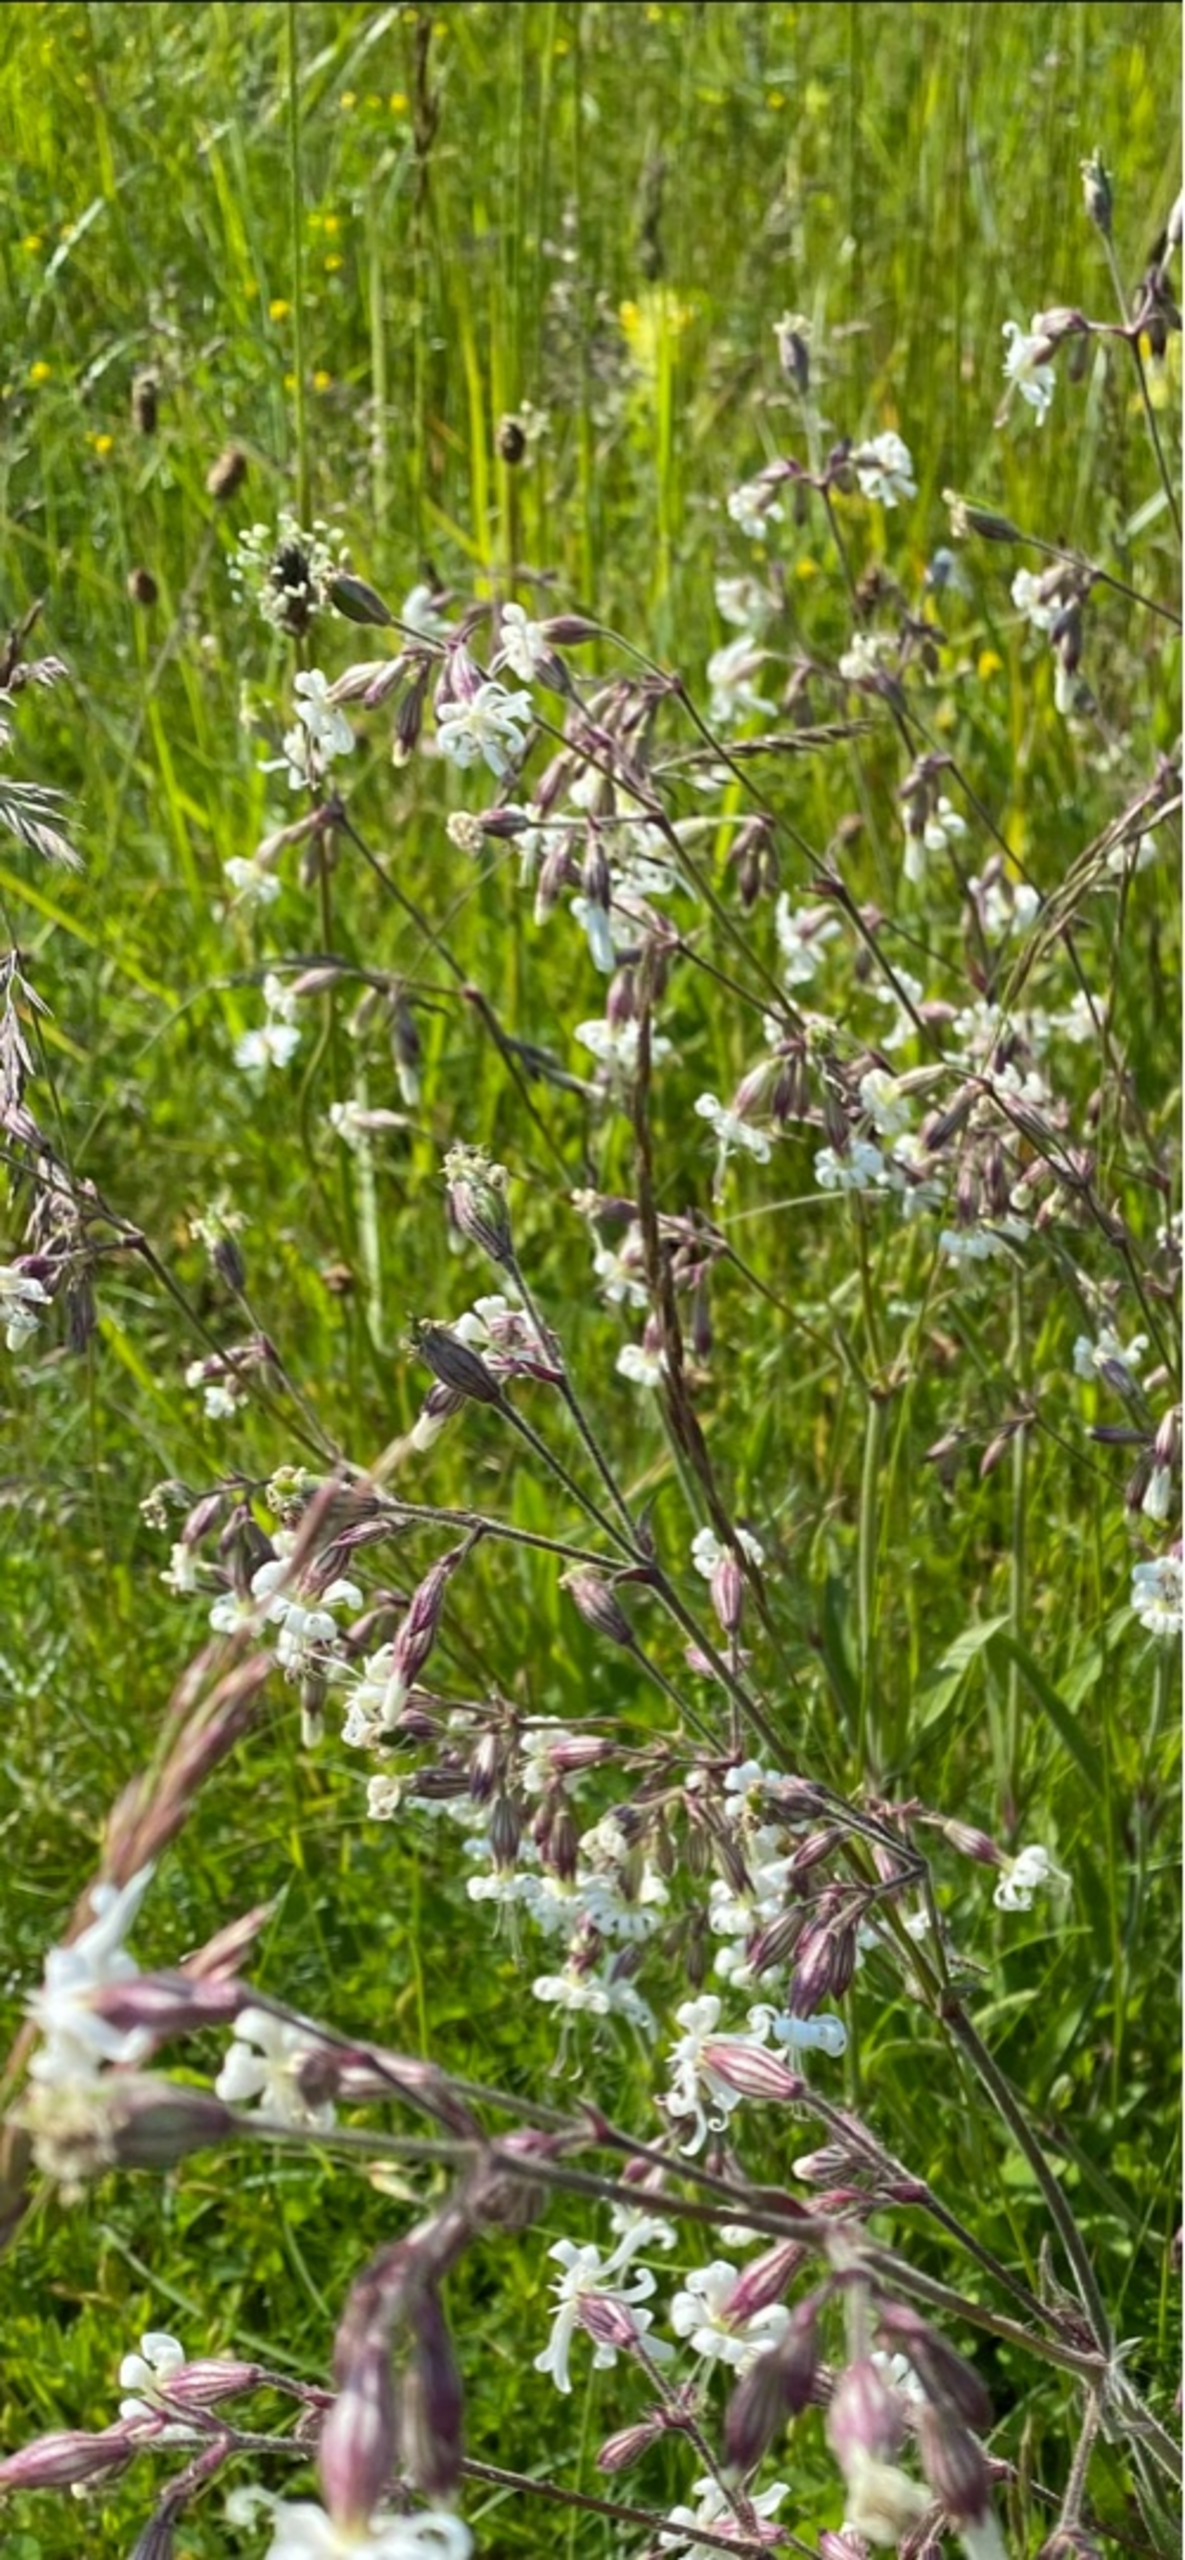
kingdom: Plantae
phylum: Tracheophyta
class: Magnoliopsida
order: Caryophyllales
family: Caryophyllaceae
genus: Silene
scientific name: Silene nutans
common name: Nikkende limurt
